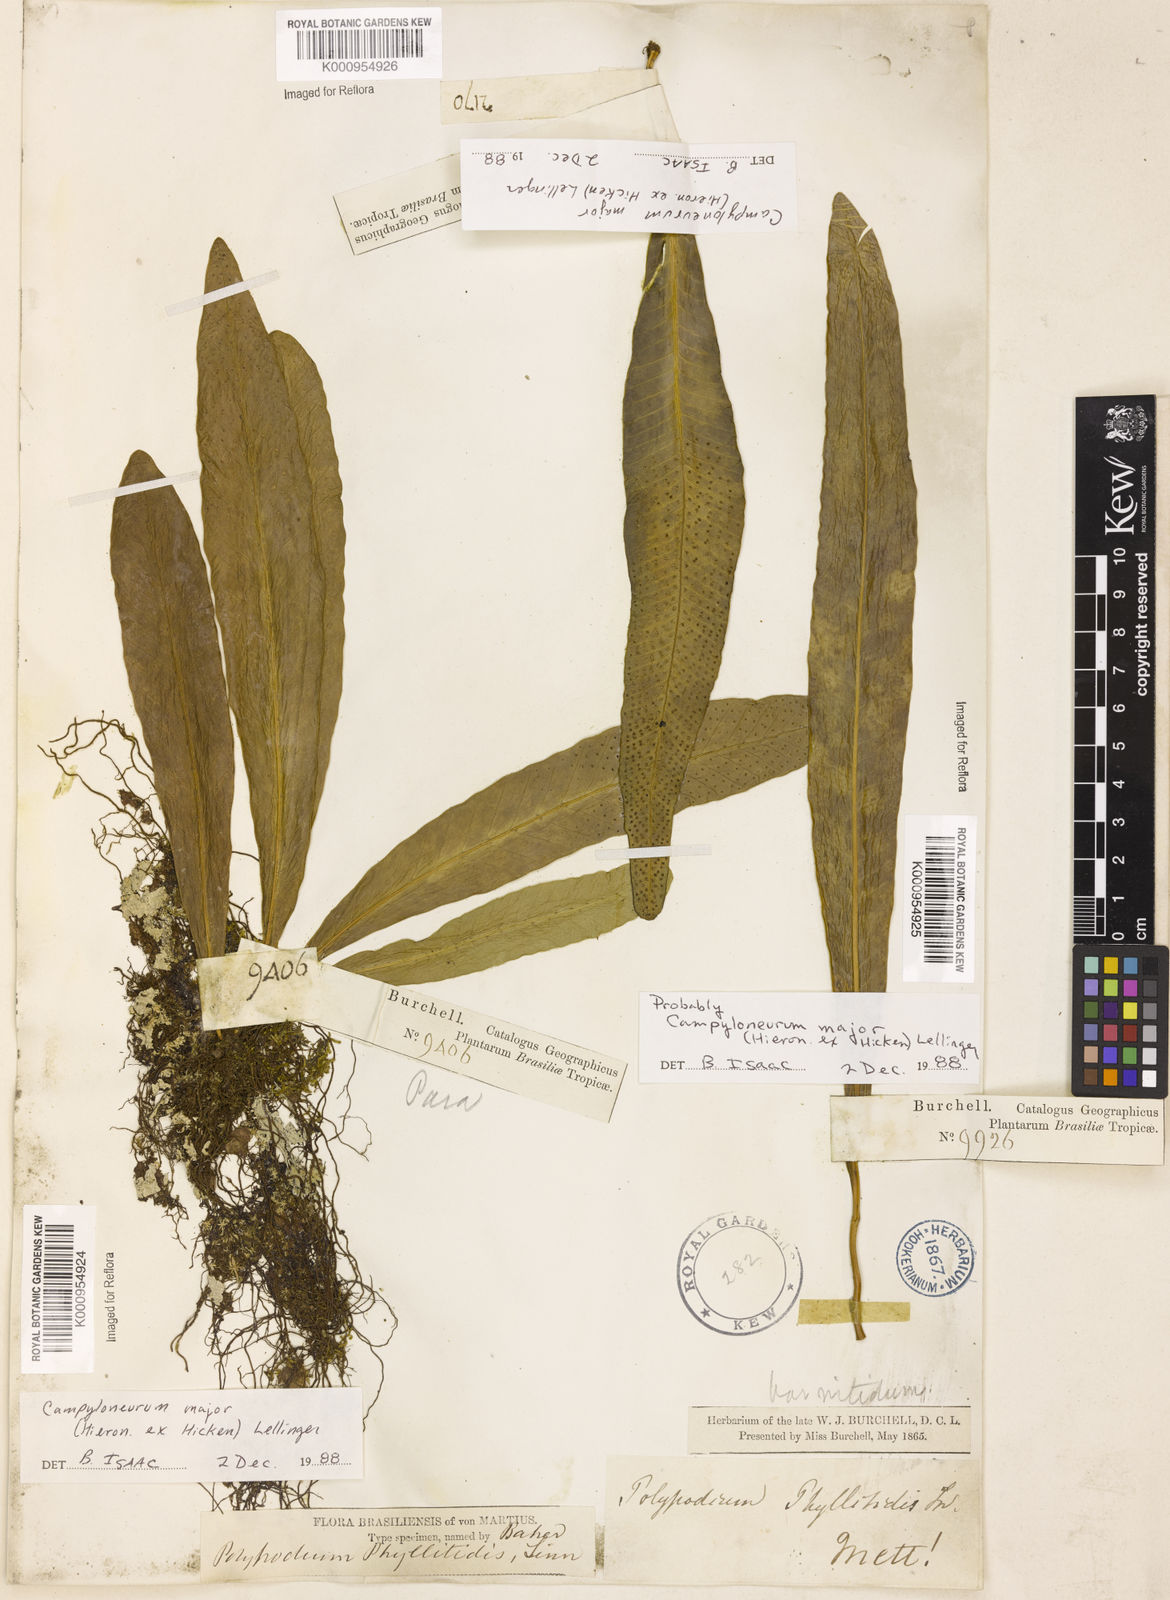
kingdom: Plantae
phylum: Tracheophyta
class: Polypodiopsida
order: Polypodiales
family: Polypodiaceae
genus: Campyloneurum
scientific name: Campyloneurum majus
